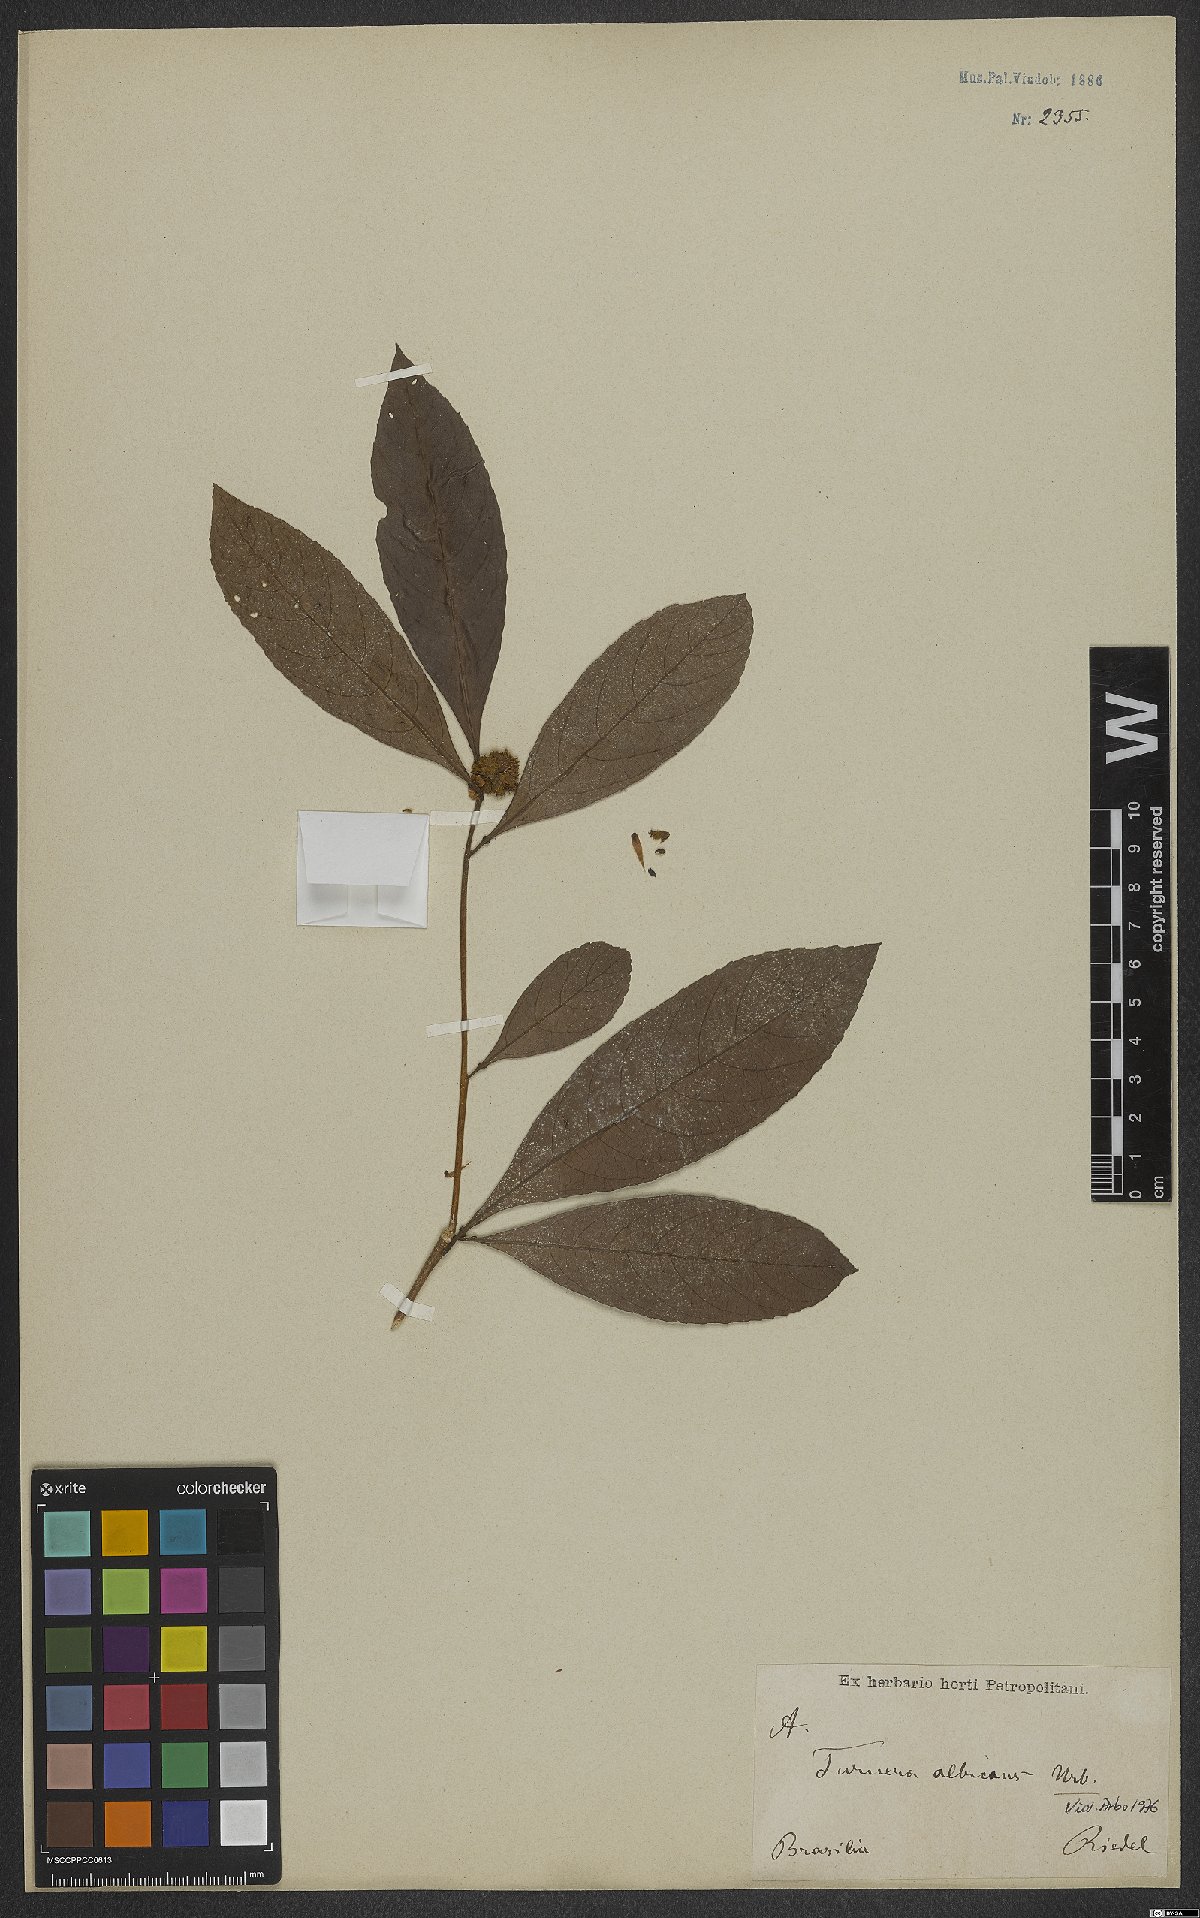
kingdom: Plantae
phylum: Tracheophyta
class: Magnoliopsida
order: Malpighiales
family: Turneraceae
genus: Oxossia
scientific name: Oxossia albicans
